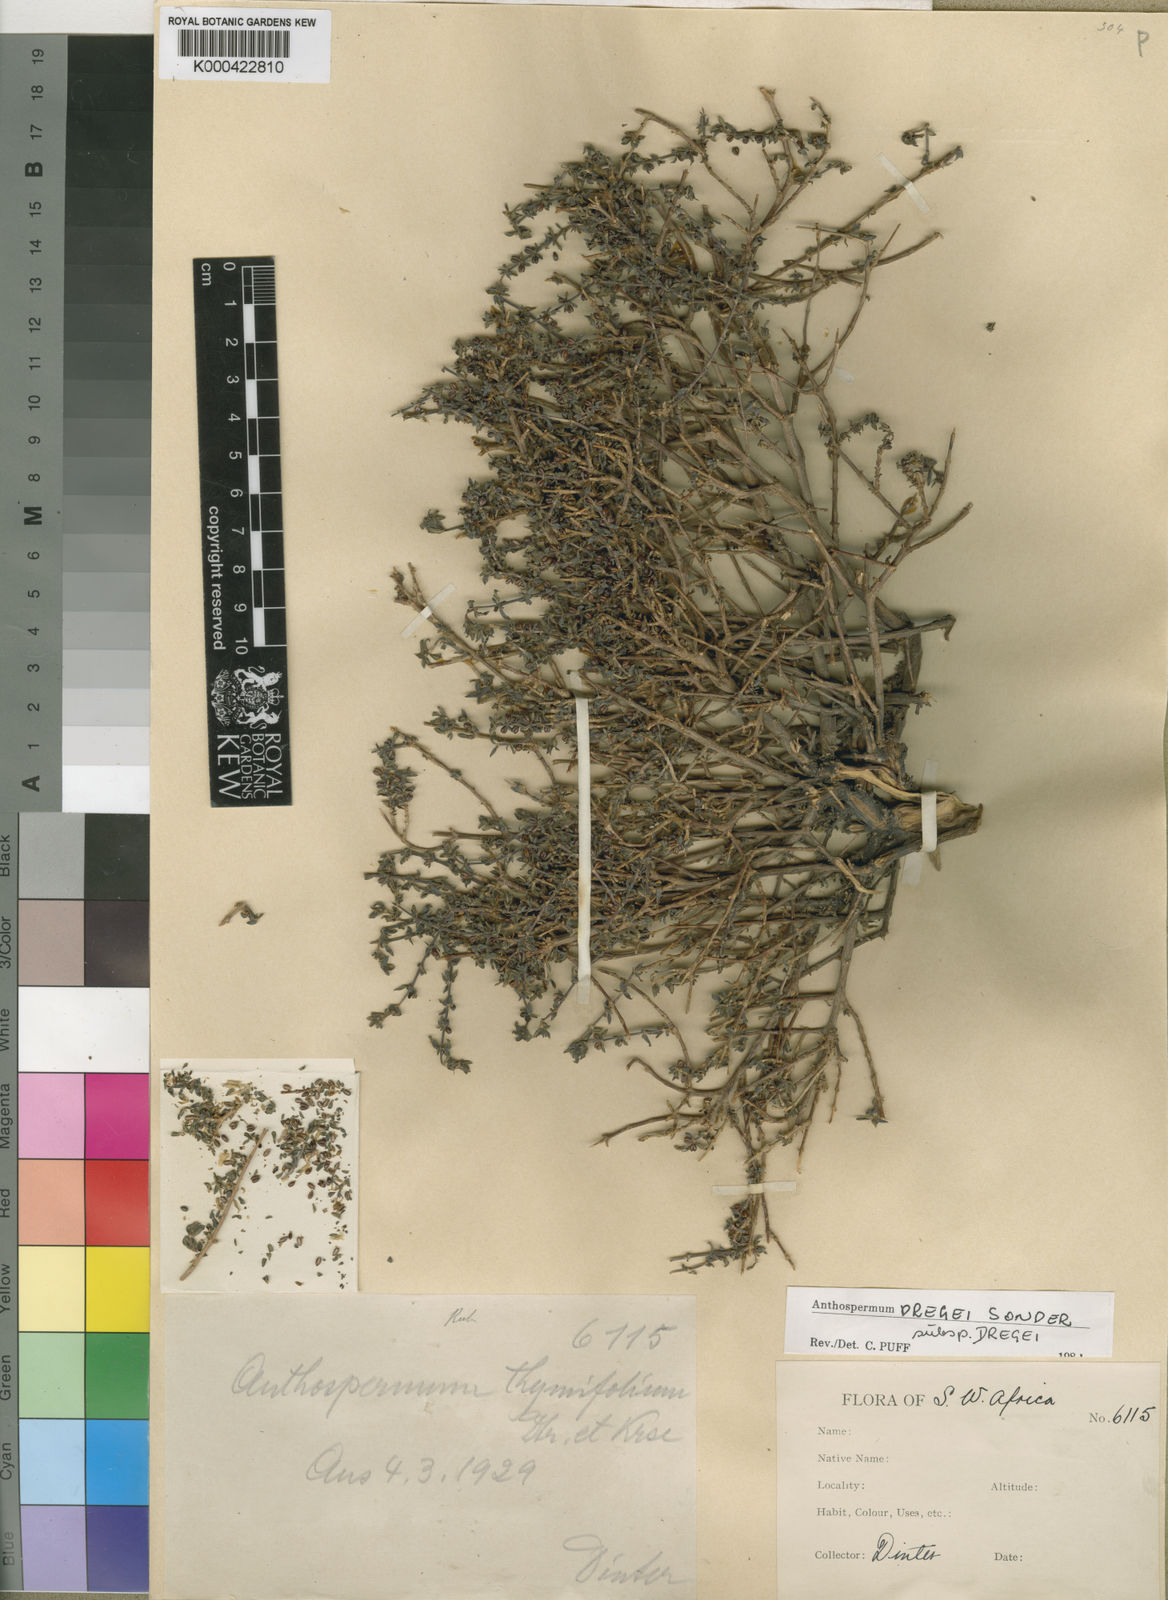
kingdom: Plantae
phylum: Tracheophyta
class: Magnoliopsida
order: Gentianales
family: Rubiaceae
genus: Anthospermum
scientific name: Anthospermum dregei
